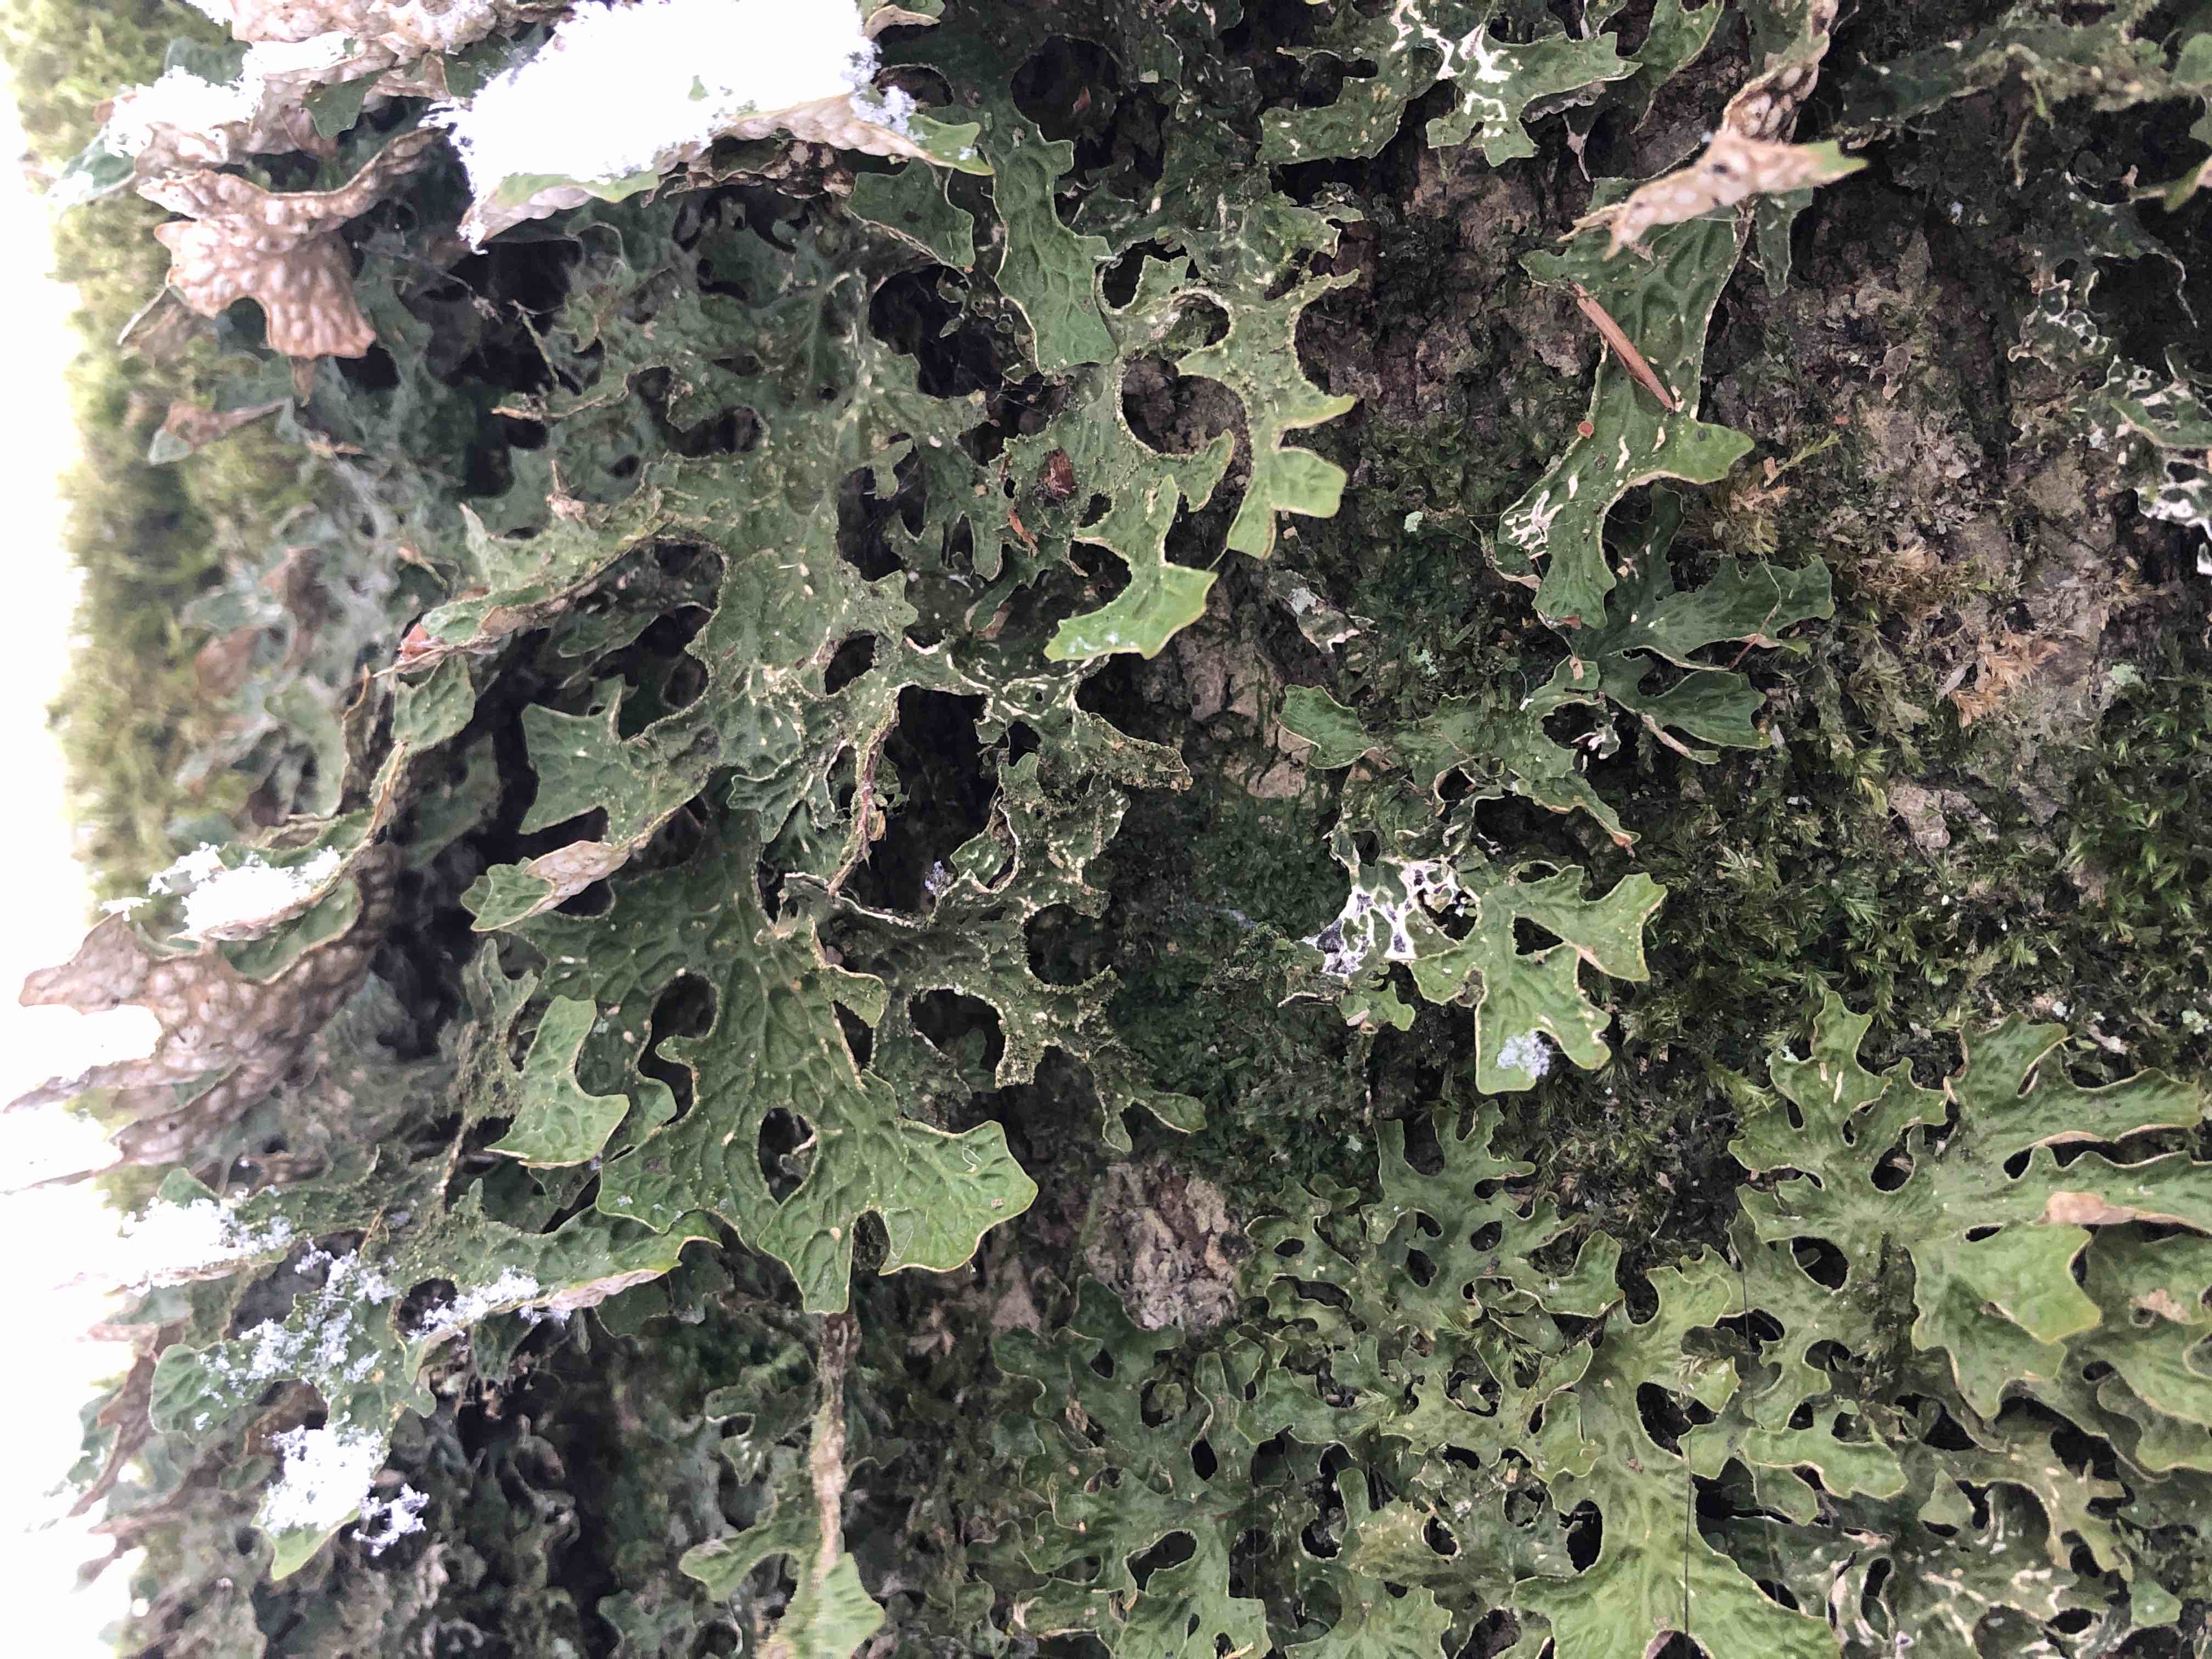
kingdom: Fungi
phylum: Ascomycota
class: Lecanoromycetes
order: Peltigerales
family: Lobariaceae
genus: Lobaria
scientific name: Lobaria pulmonaria
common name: almindelig lungelav
